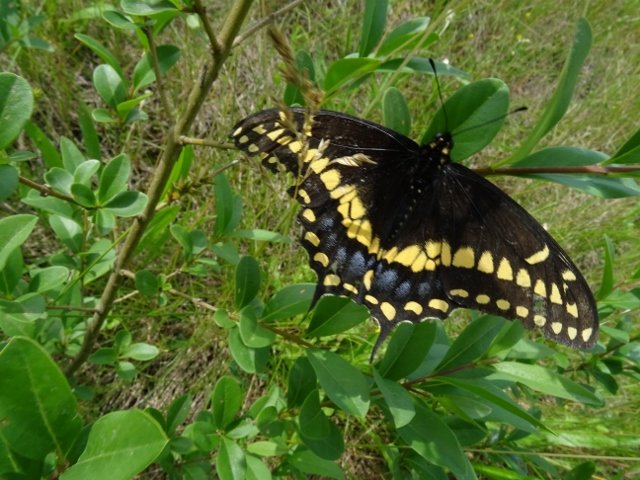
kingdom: Animalia
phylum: Arthropoda
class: Insecta
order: Lepidoptera
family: Papilionidae
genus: Papilio
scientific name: Papilio polyxenes
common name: Black Swallowtail
